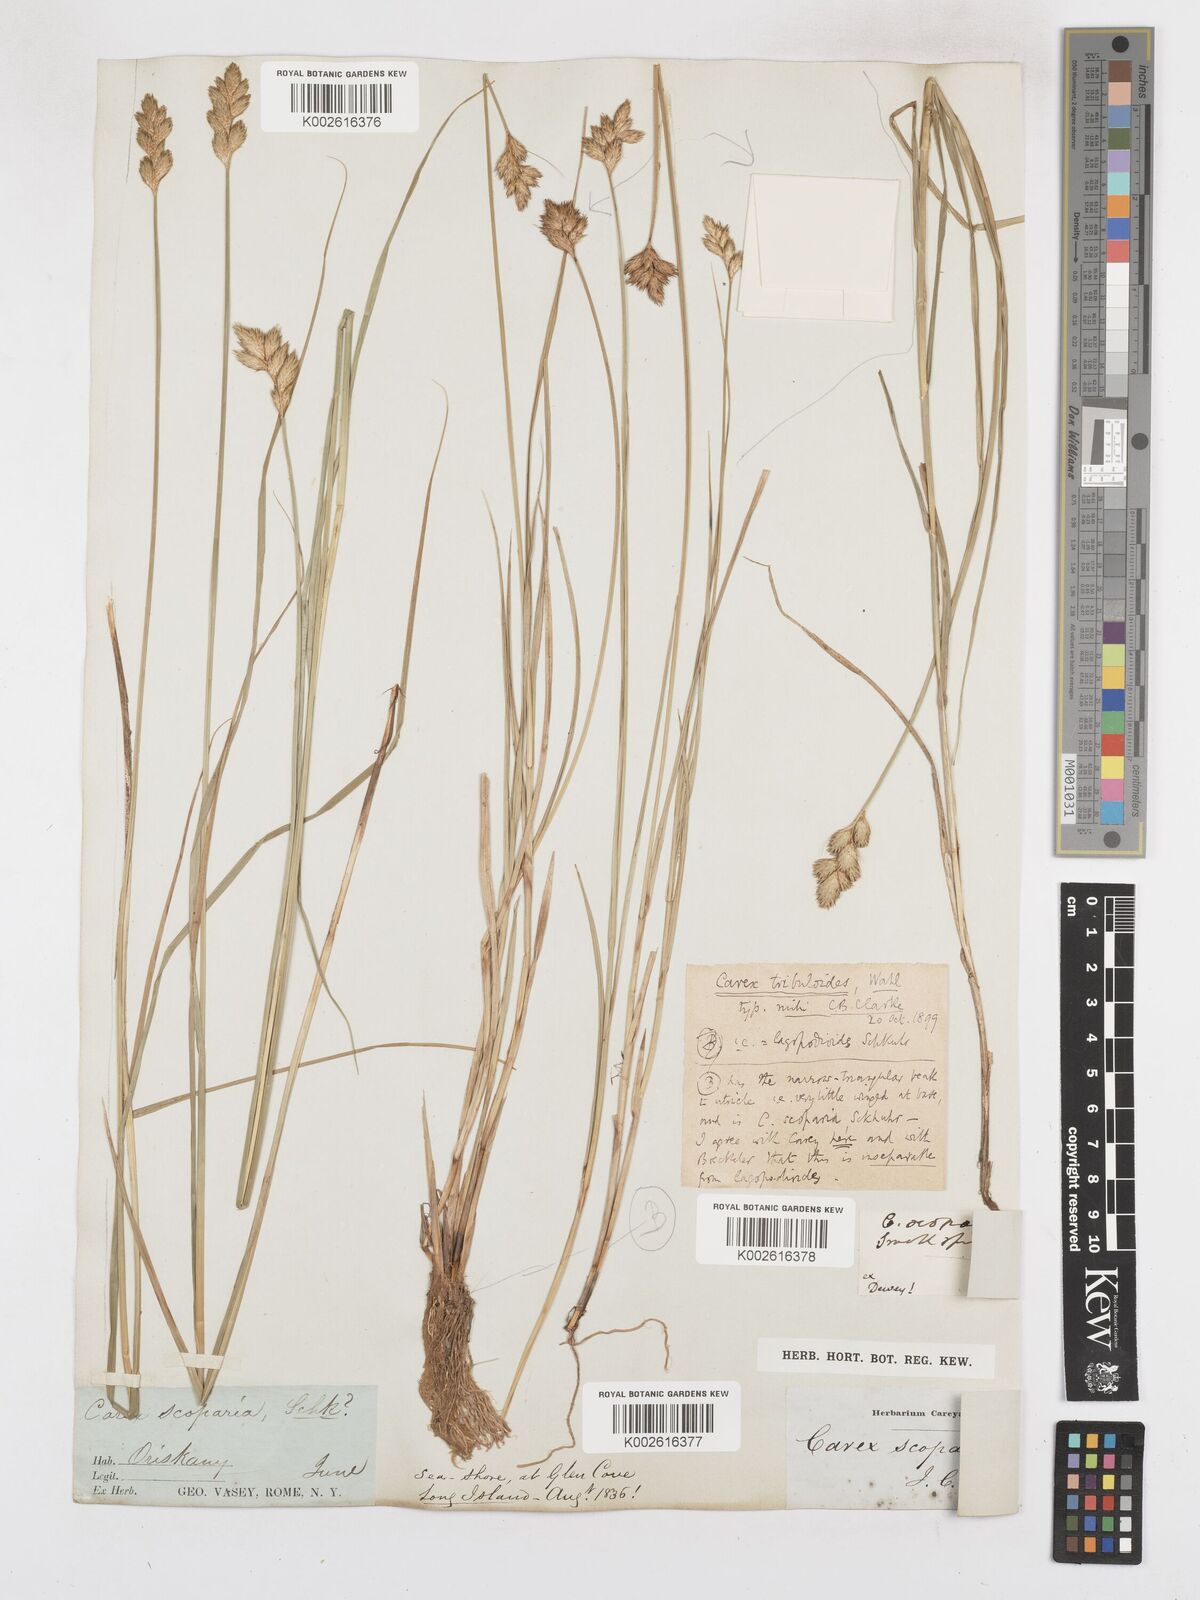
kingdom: Plantae
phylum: Tracheophyta
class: Liliopsida
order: Poales
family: Cyperaceae
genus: Carex
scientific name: Carex tribuloides
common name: Blunt broom sedge
